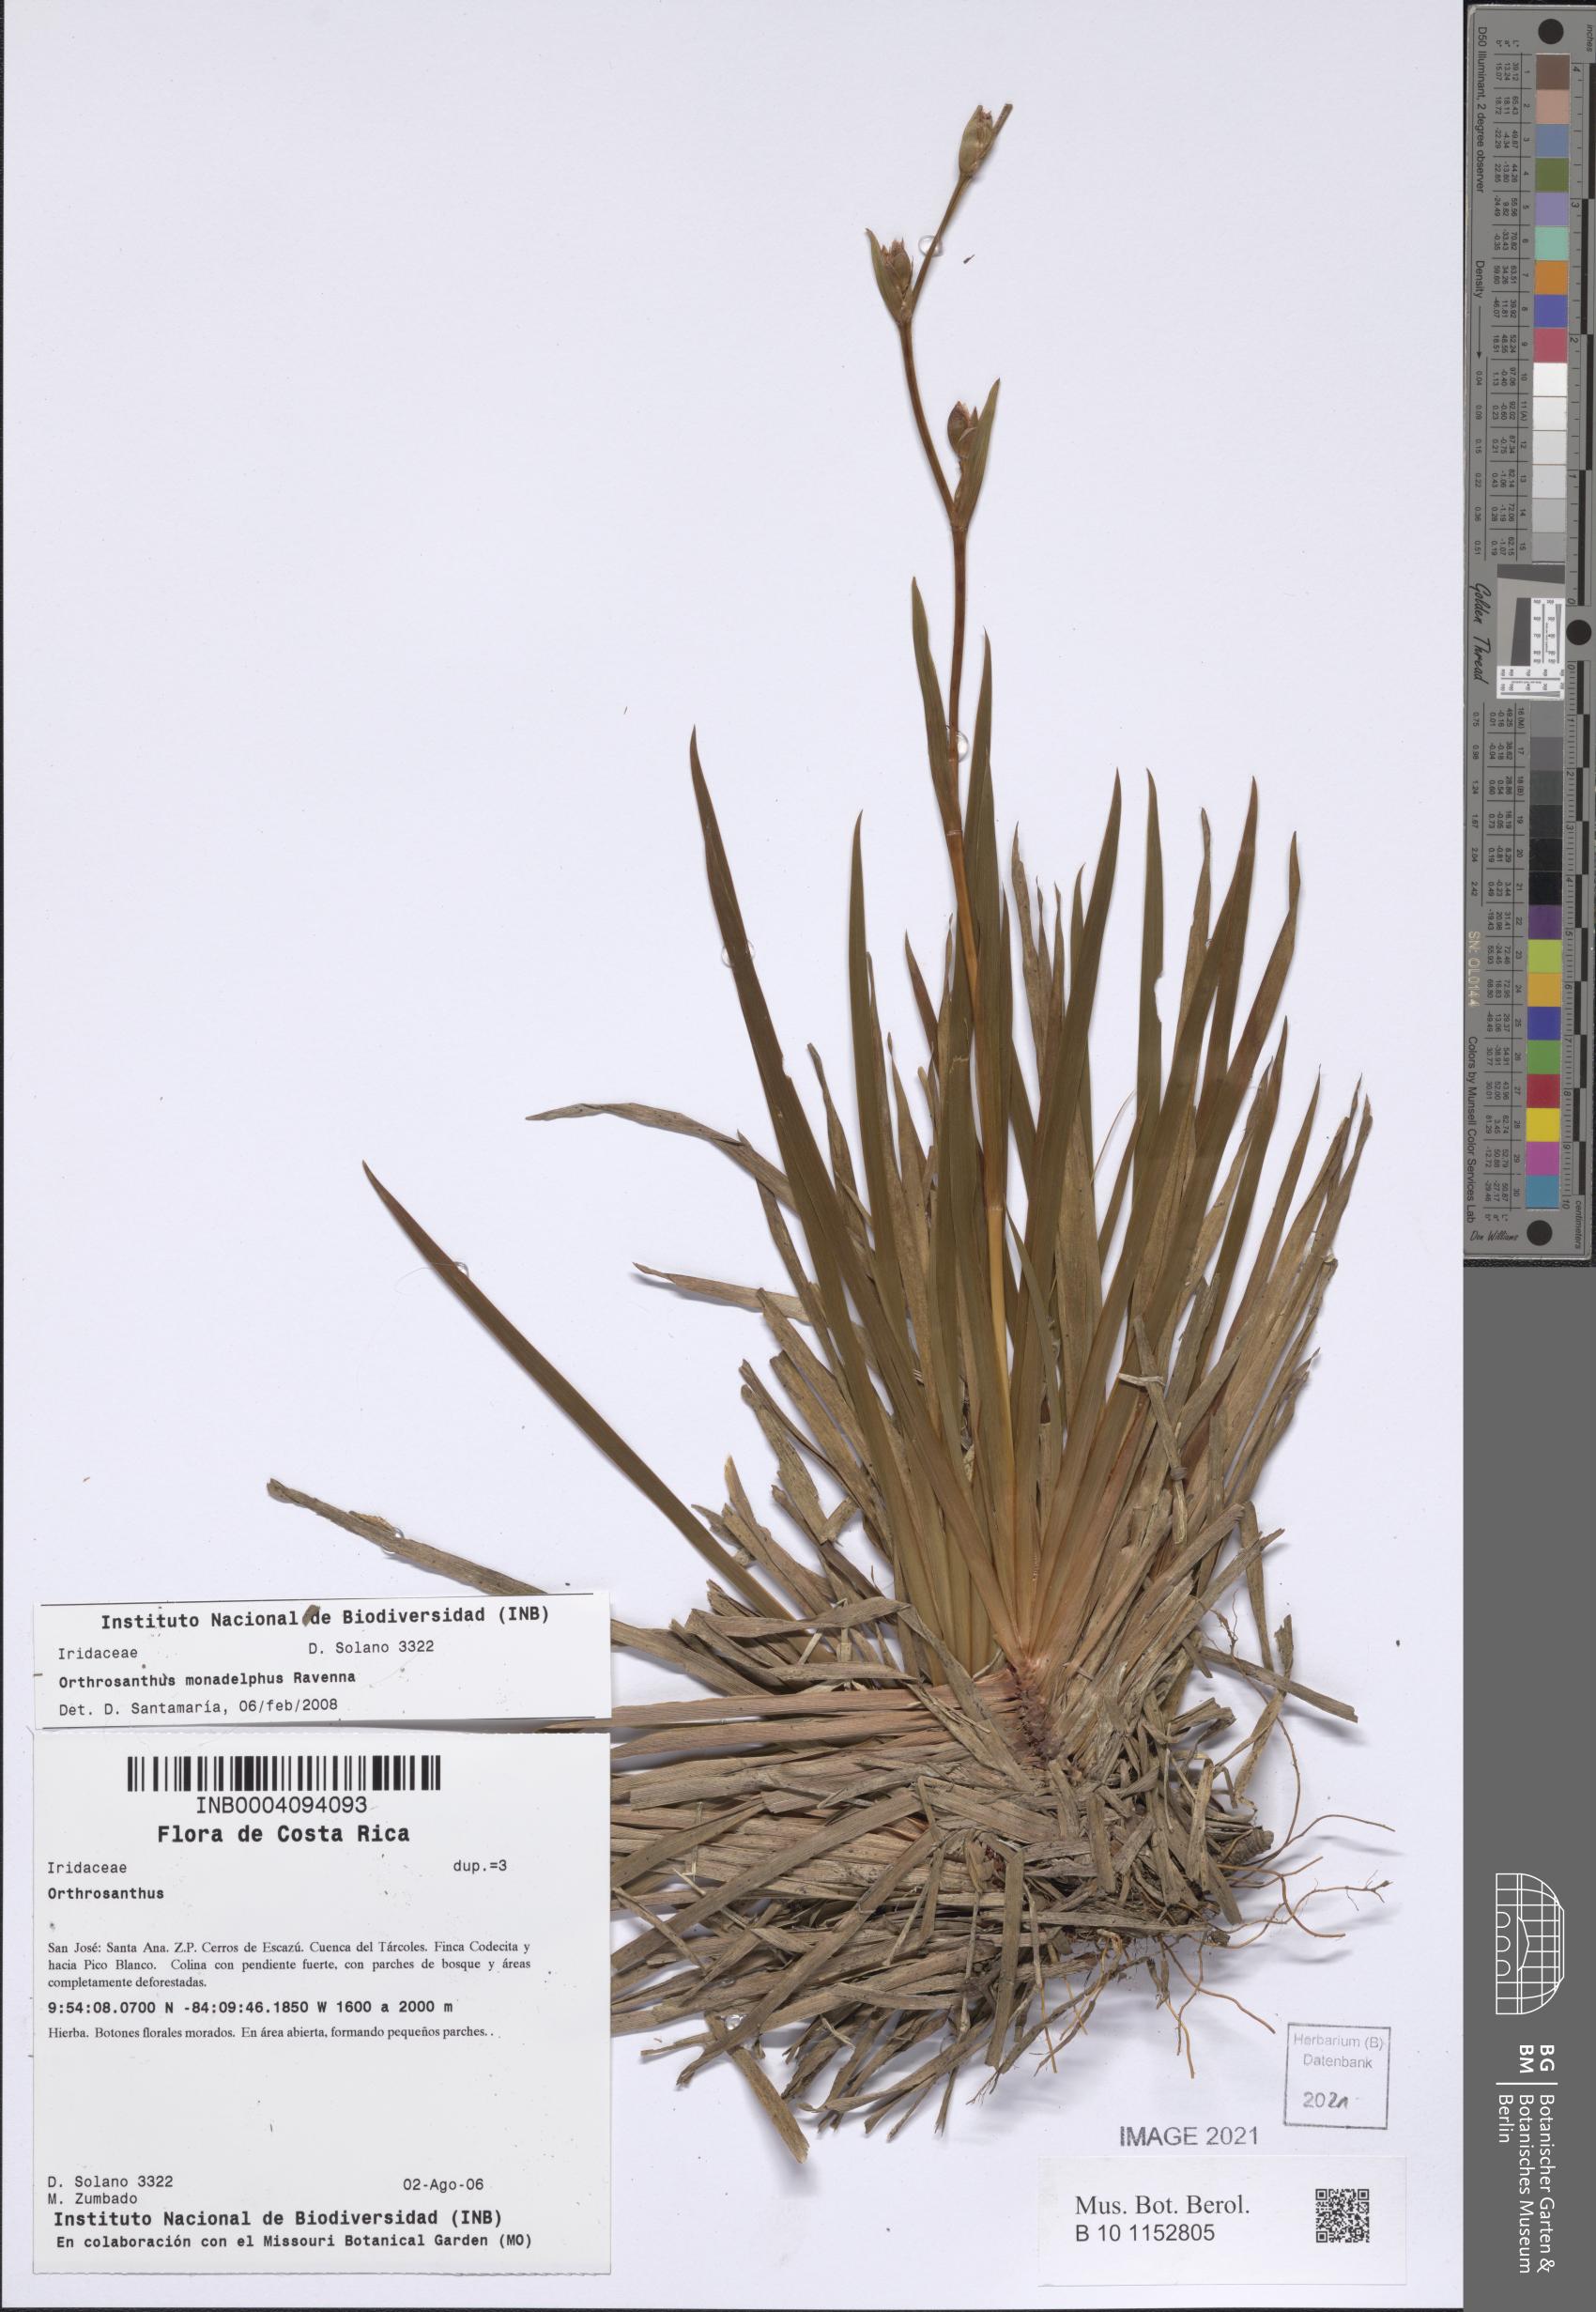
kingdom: Plantae
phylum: Tracheophyta
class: Liliopsida
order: Asparagales
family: Iridaceae
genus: Orthrosanthus
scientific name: Orthrosanthus monadelphus
